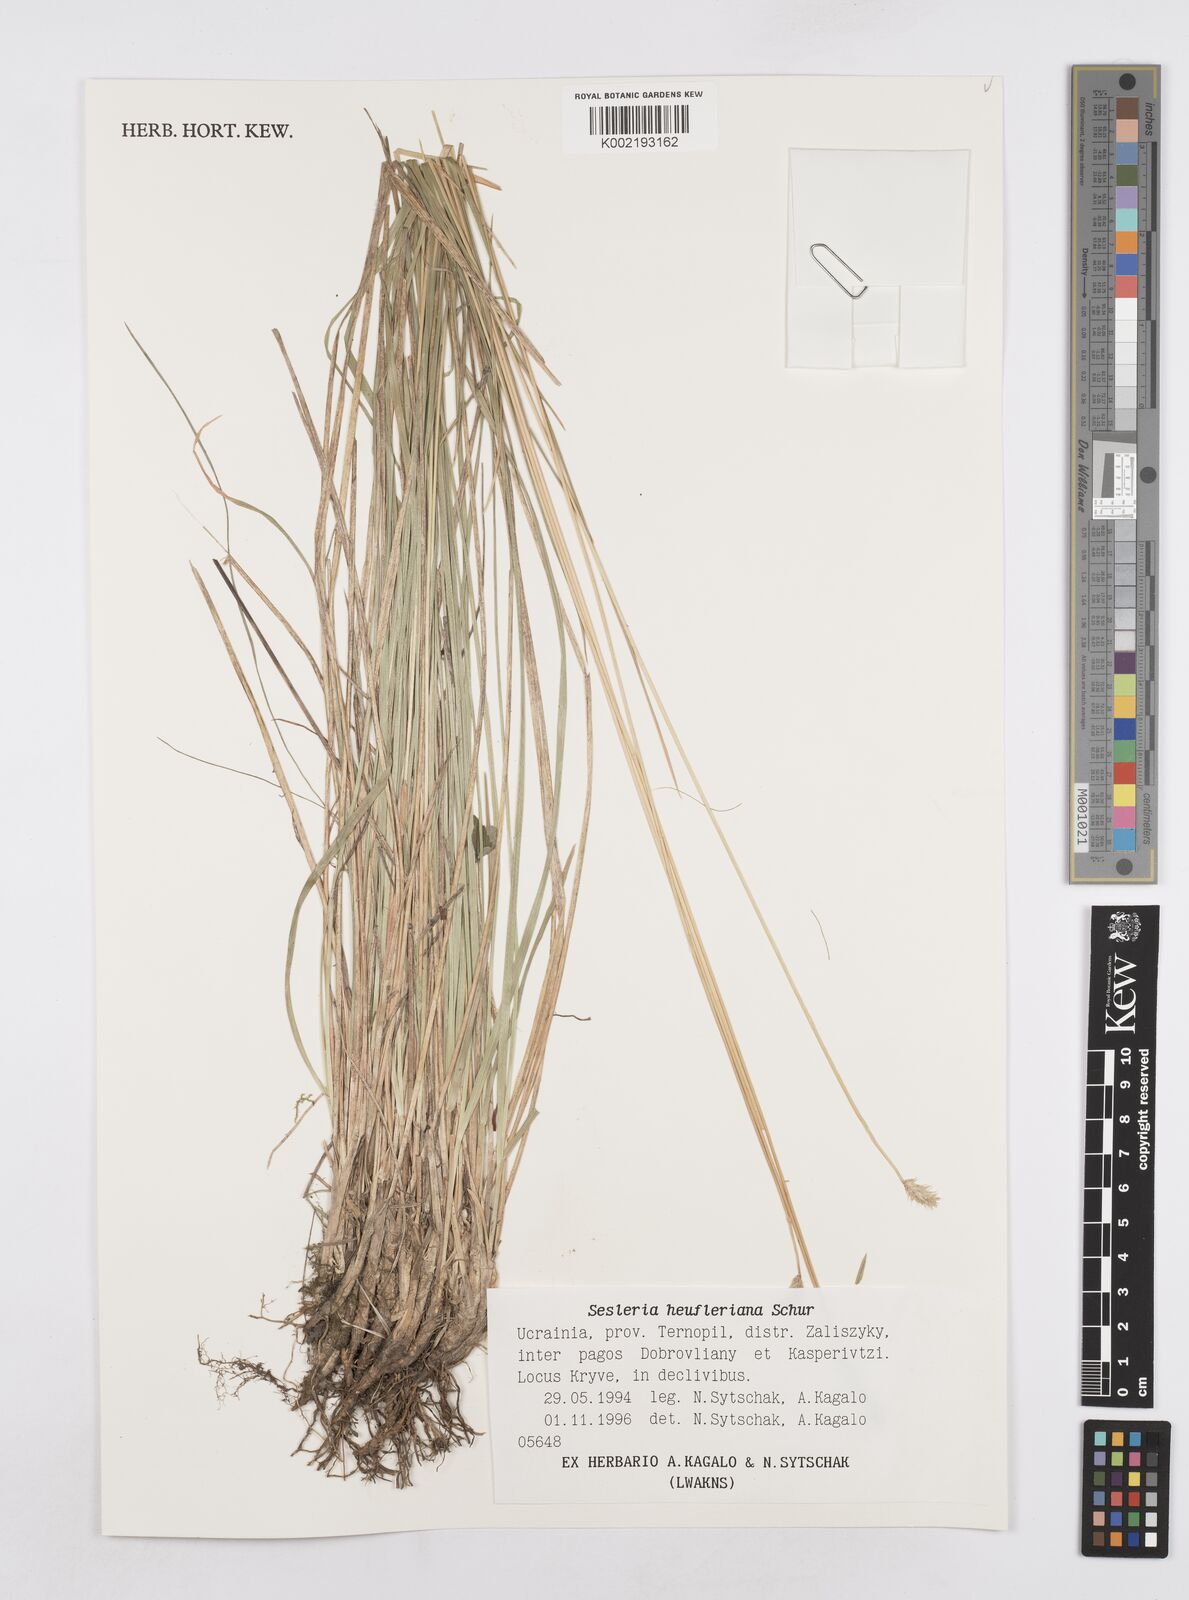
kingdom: Plantae
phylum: Tracheophyta
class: Liliopsida
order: Poales
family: Poaceae
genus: Sesleria
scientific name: Sesleria heufleriana
